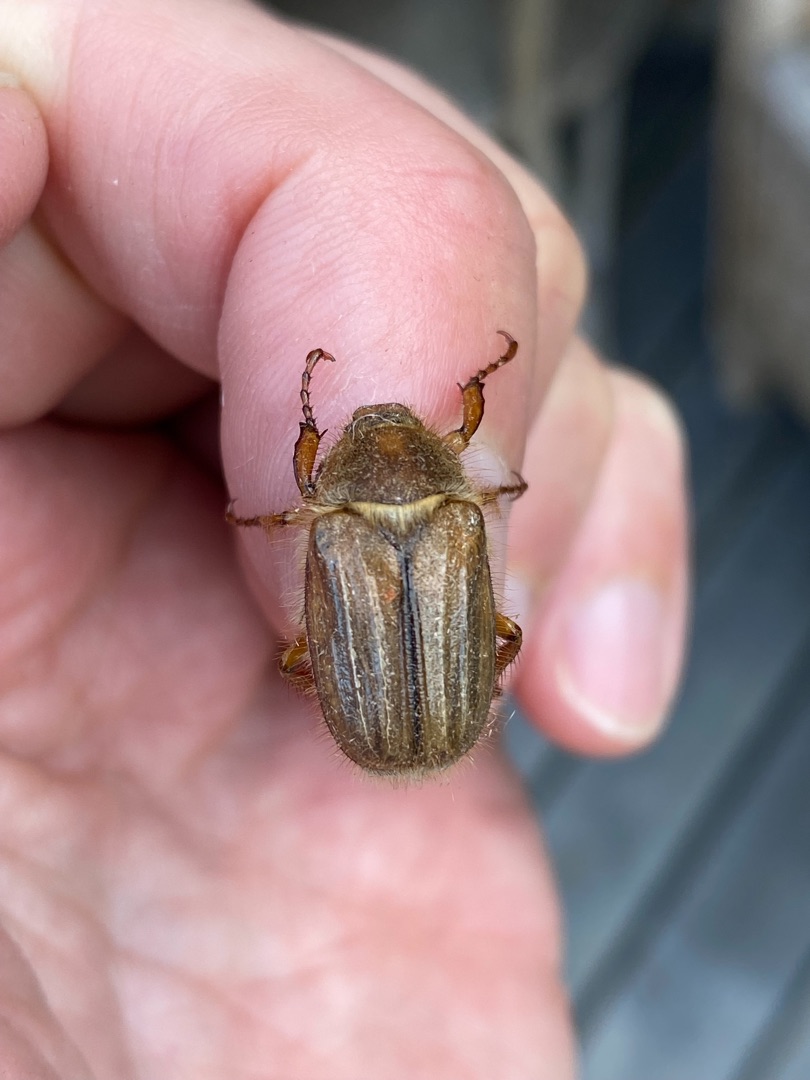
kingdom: Animalia
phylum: Arthropoda
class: Insecta
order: Coleoptera
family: Scarabaeidae
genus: Amphimallon
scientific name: Amphimallon solstitiale
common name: Sankthansoldenborre
